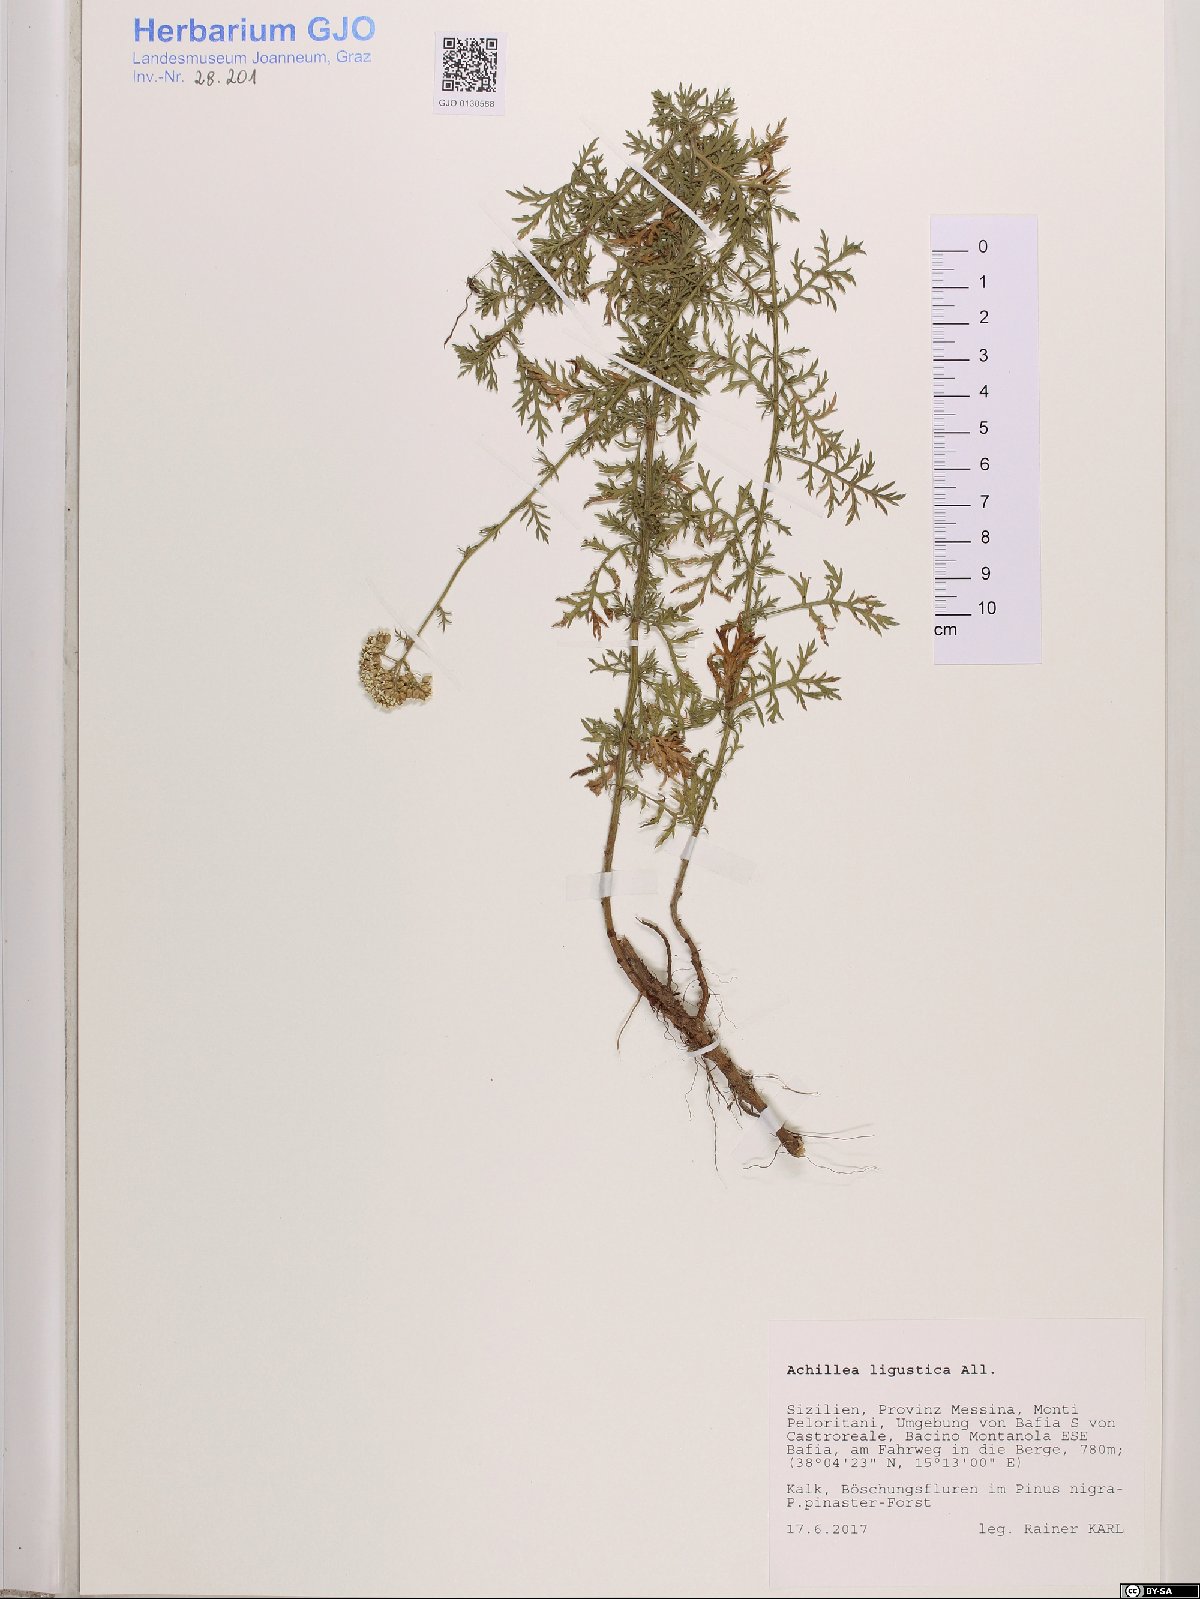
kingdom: Plantae
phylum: Tracheophyta
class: Magnoliopsida
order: Asterales
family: Asteraceae
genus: Achillea
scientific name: Achillea ligustica
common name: Southern yarrow
